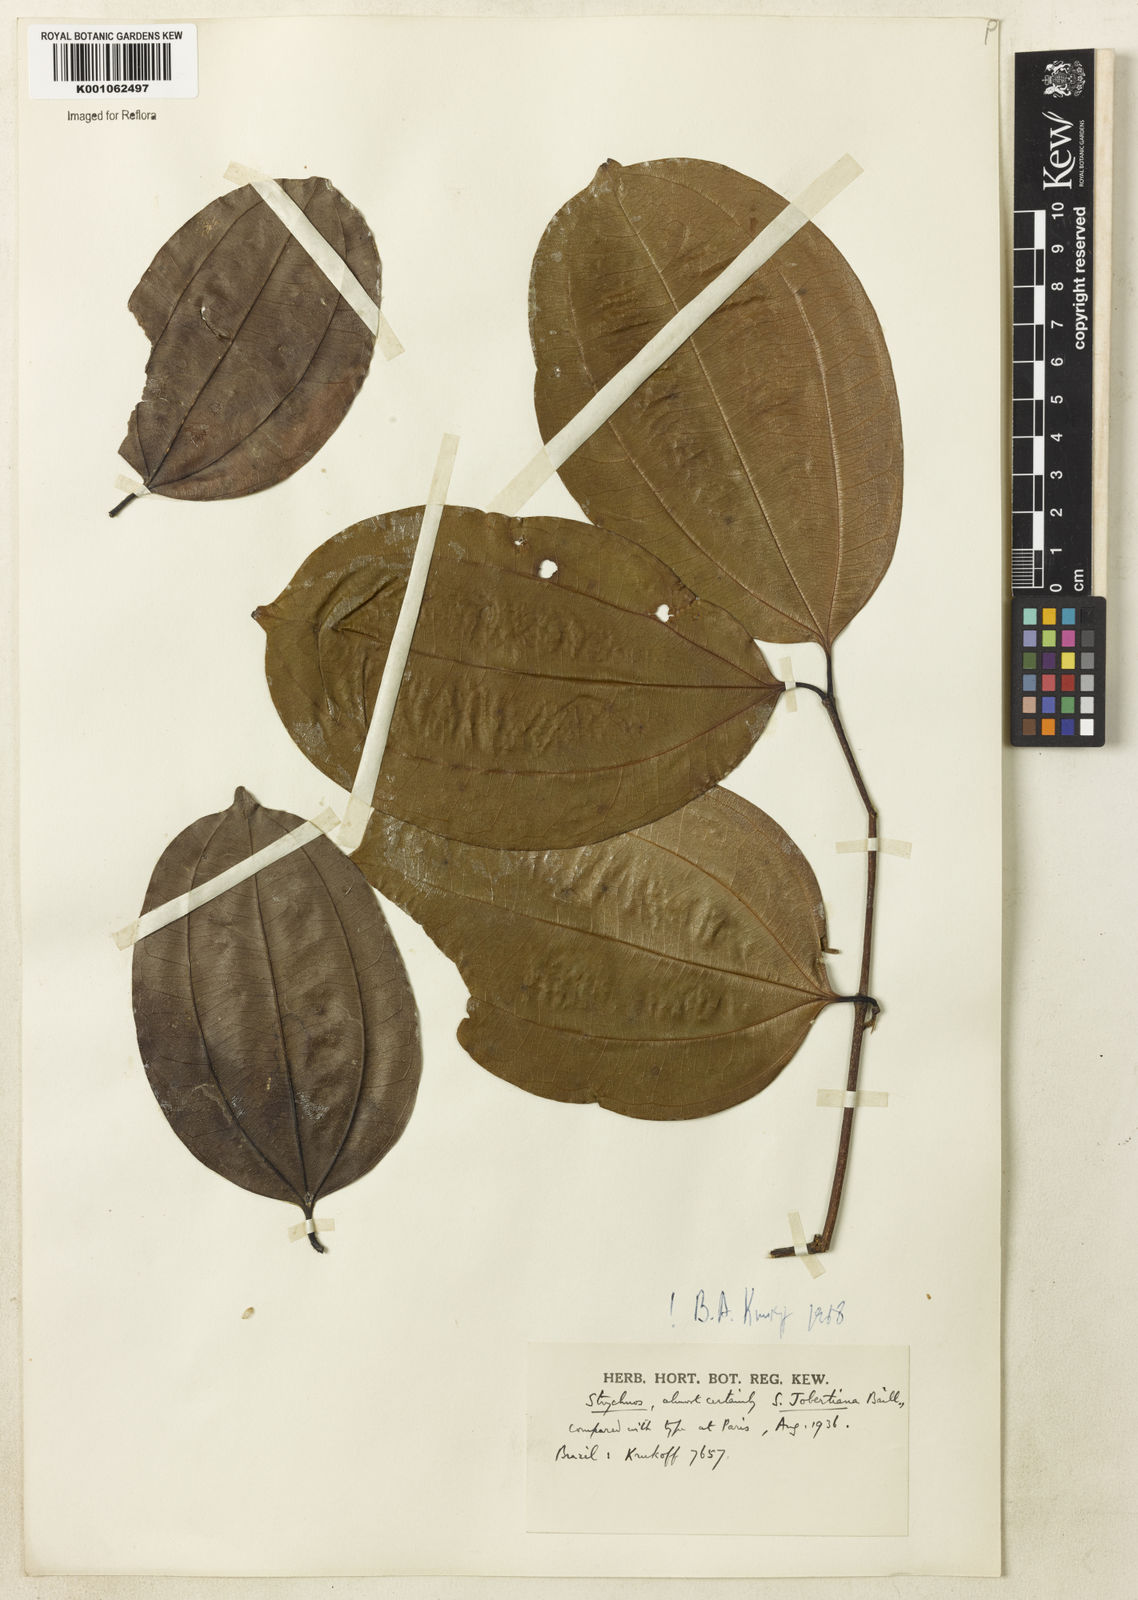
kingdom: Plantae
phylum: Tracheophyta
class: Magnoliopsida
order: Gentianales
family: Loganiaceae
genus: Strychnos
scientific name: Strychnos jobertiana
